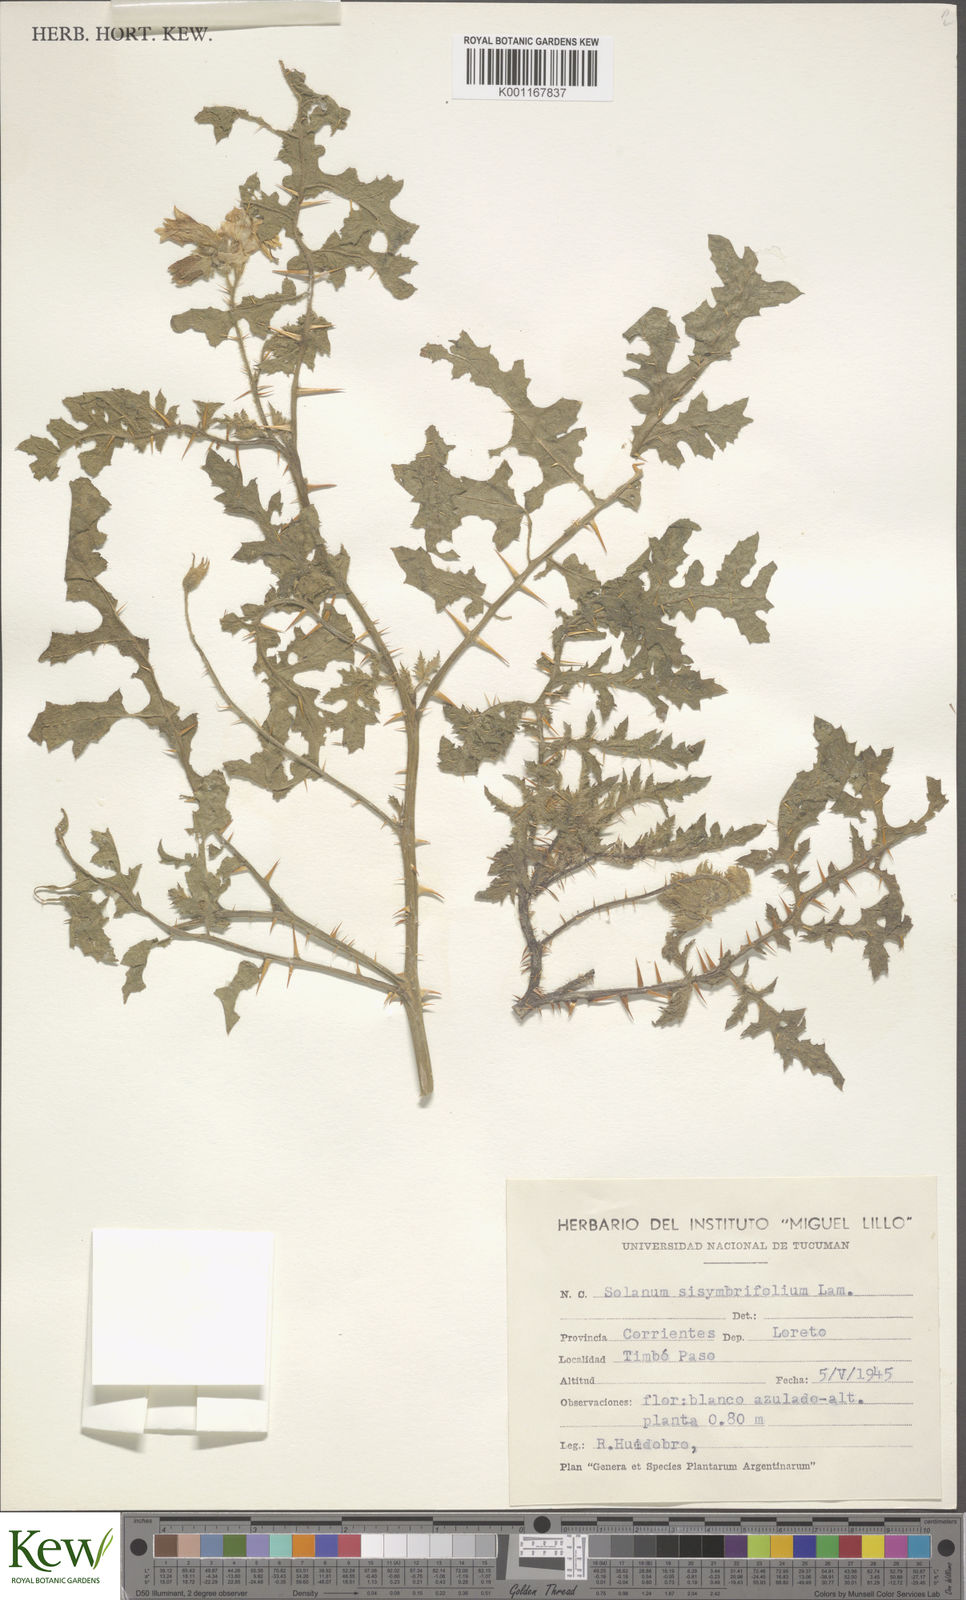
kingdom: Plantae
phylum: Tracheophyta
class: Magnoliopsida
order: Solanales
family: Solanaceae
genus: Solanum
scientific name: Solanum sisymbriifolium
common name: Red buffalo-bur
